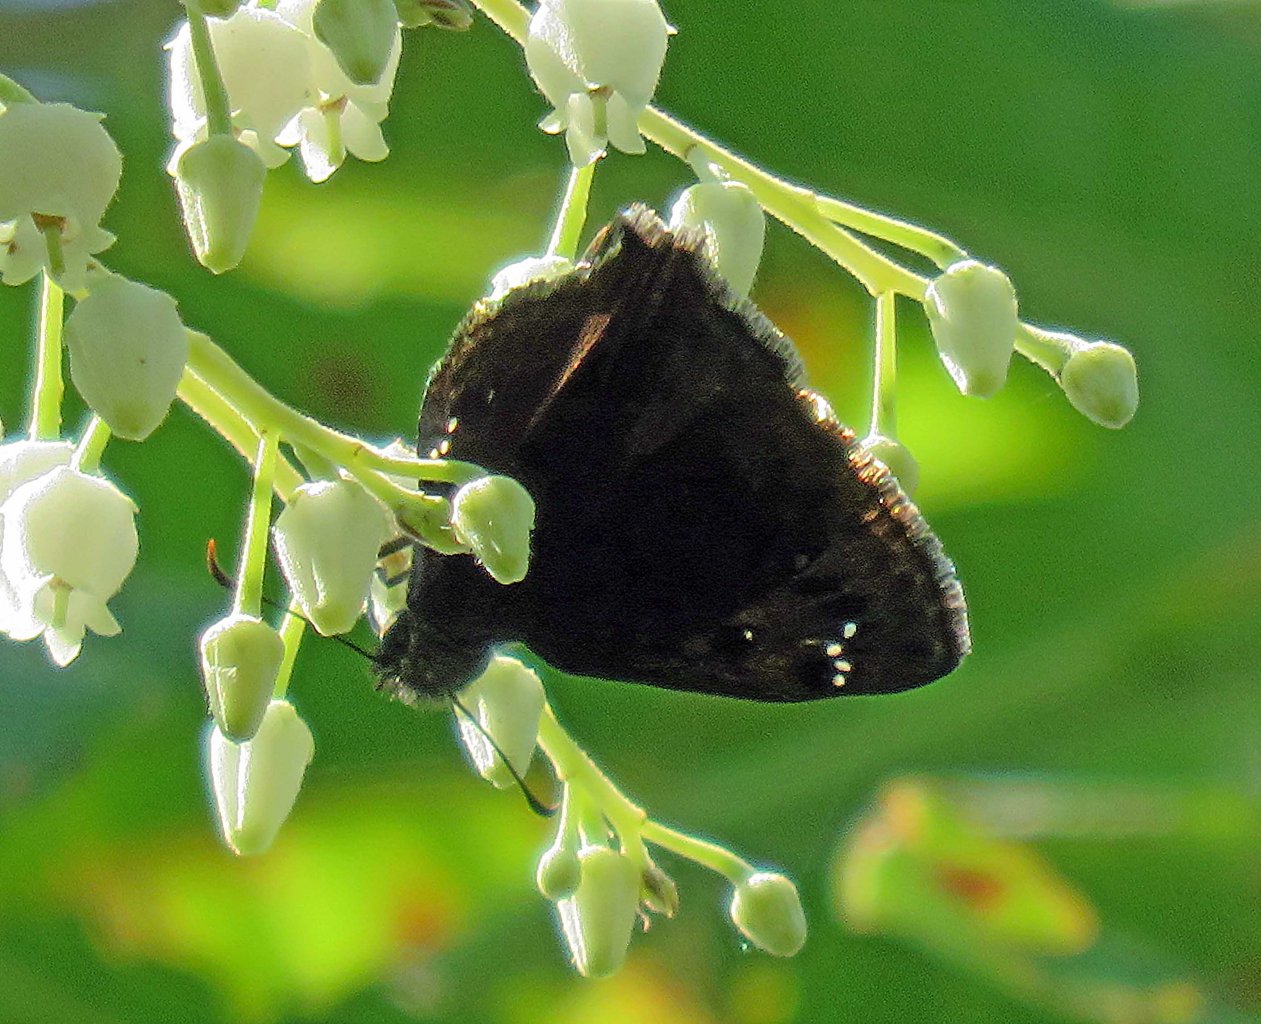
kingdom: Animalia
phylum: Arthropoda
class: Insecta
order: Lepidoptera
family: Hesperiidae
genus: Erynnis
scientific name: Erynnis zarucco
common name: Zarucco Duskywing
